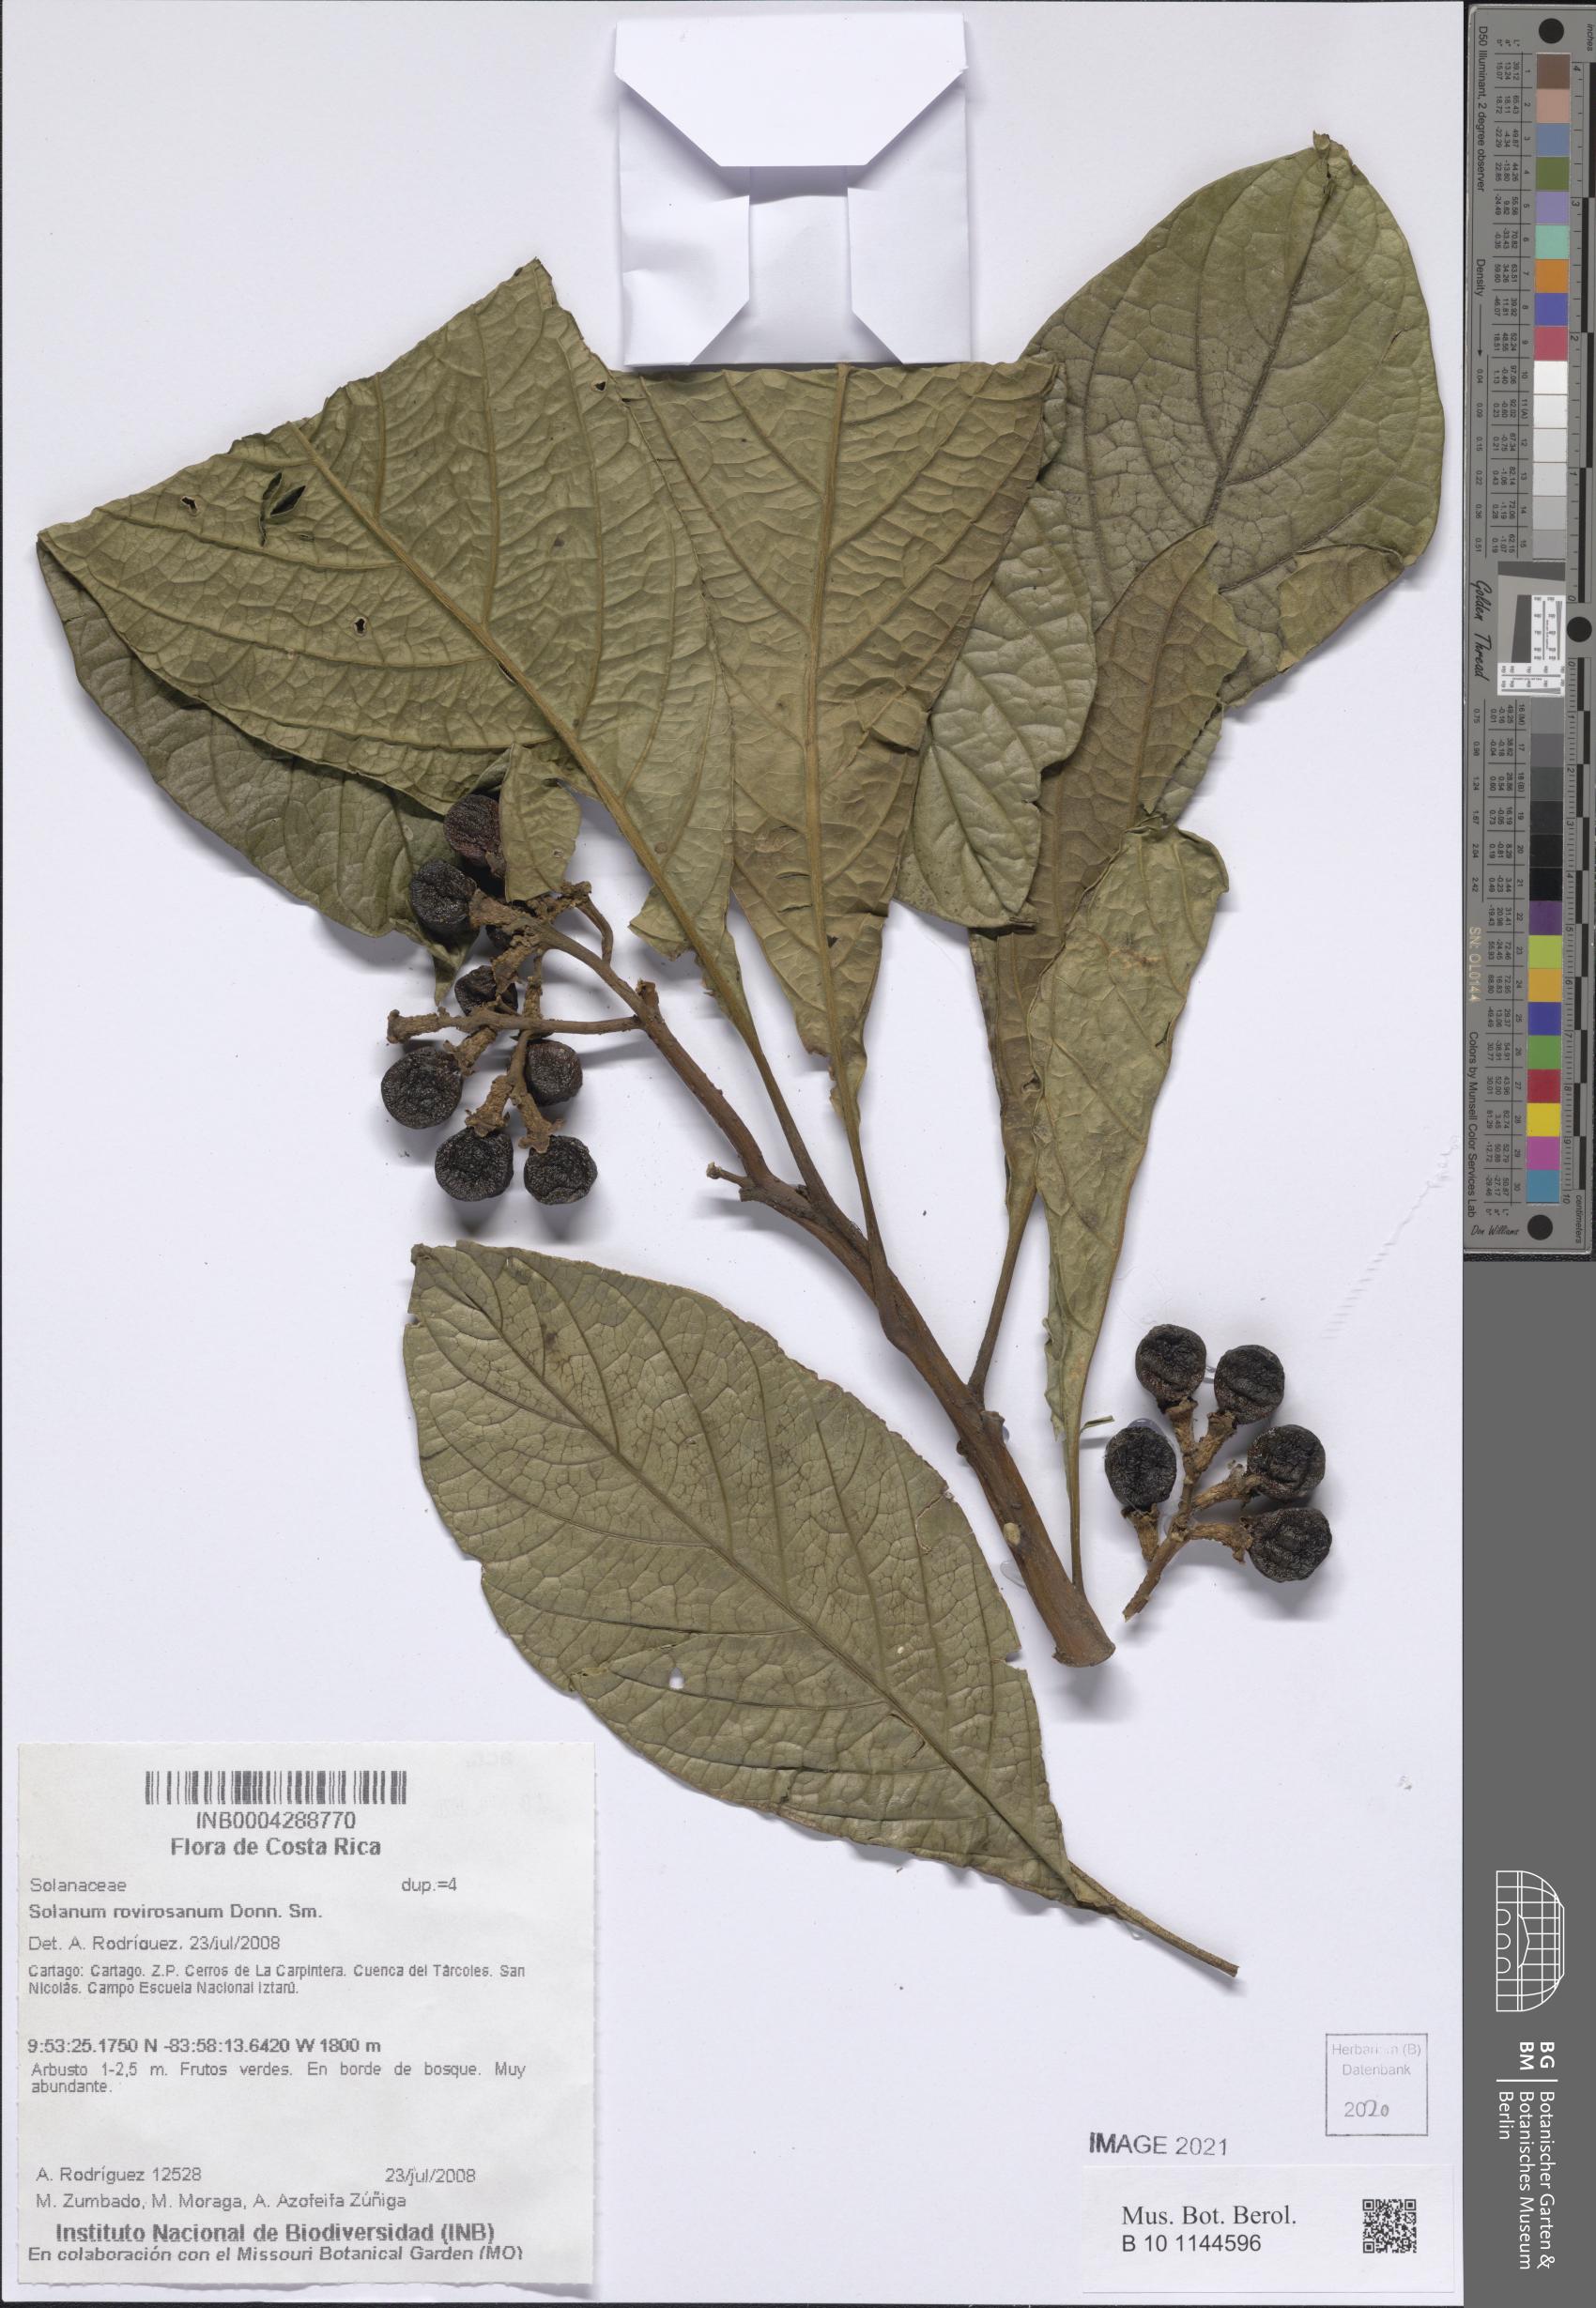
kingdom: Plantae
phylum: Tracheophyta
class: Magnoliopsida
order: Solanales
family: Solanaceae
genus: Solanum
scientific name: Solanum rovirosanum
